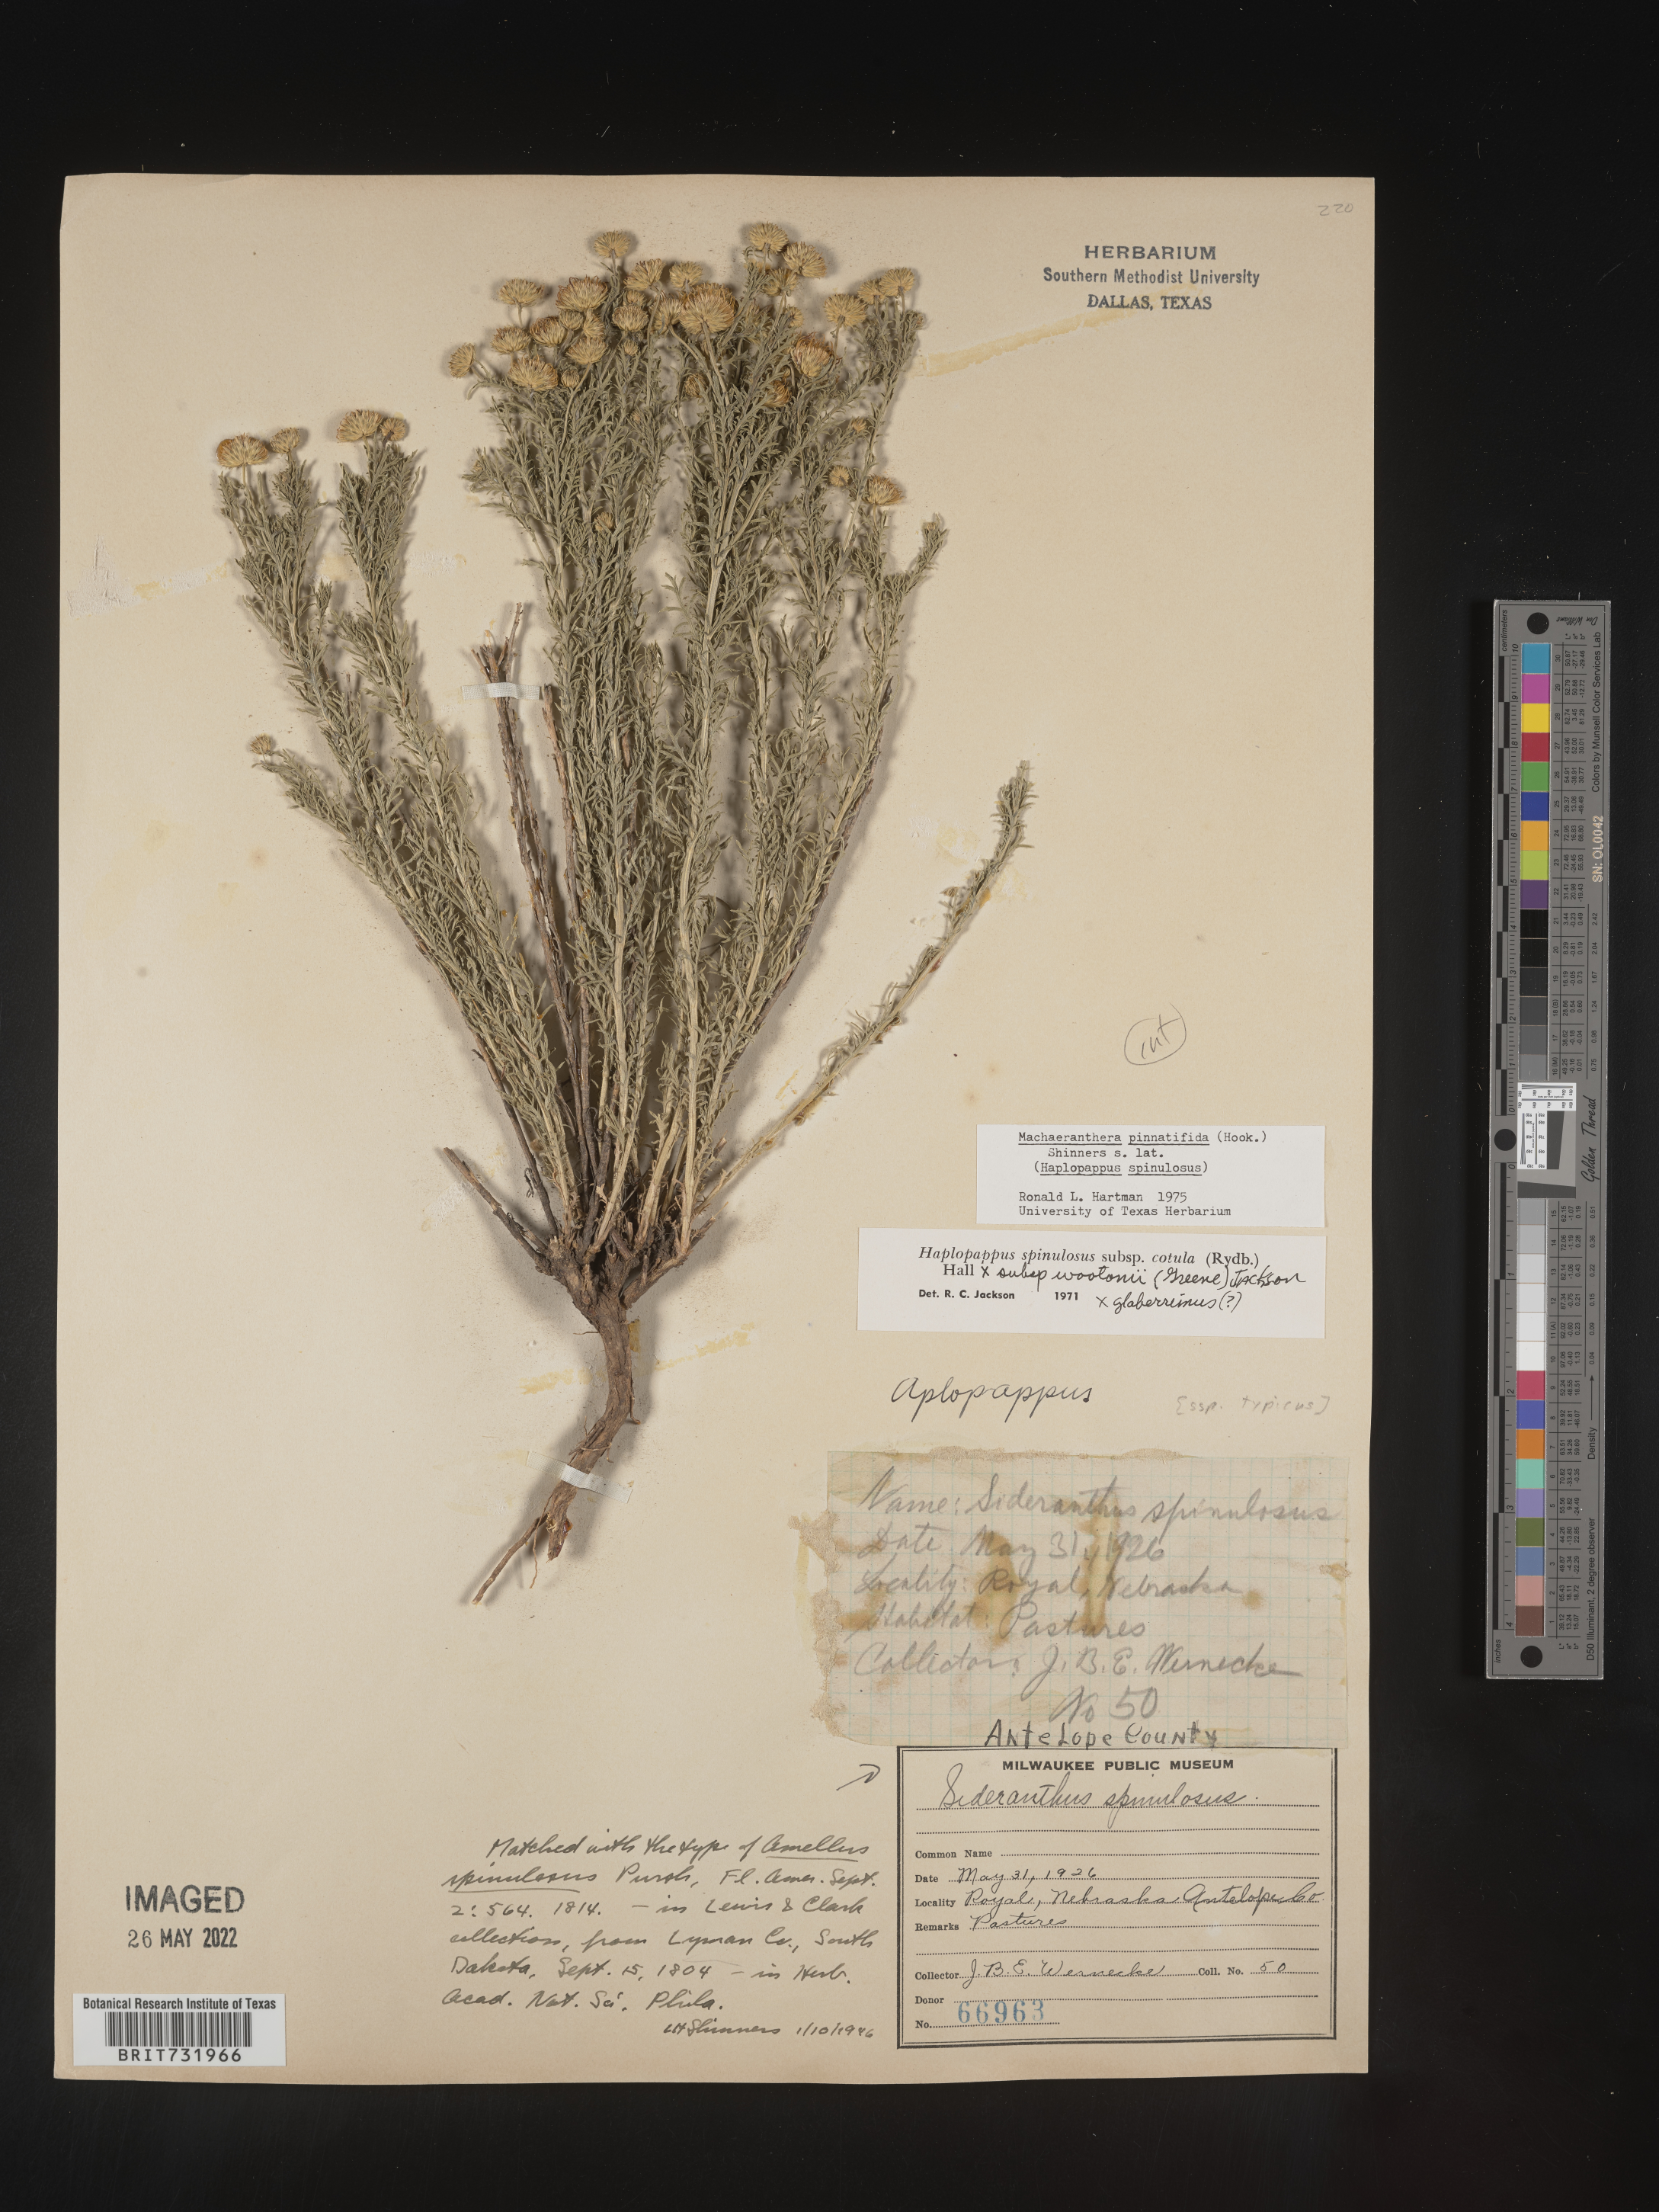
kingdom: Plantae
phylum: Tracheophyta
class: Magnoliopsida
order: Asterales
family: Asteraceae
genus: Xanthisma
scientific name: Xanthisma spinulosum
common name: Spiny goldenweed
